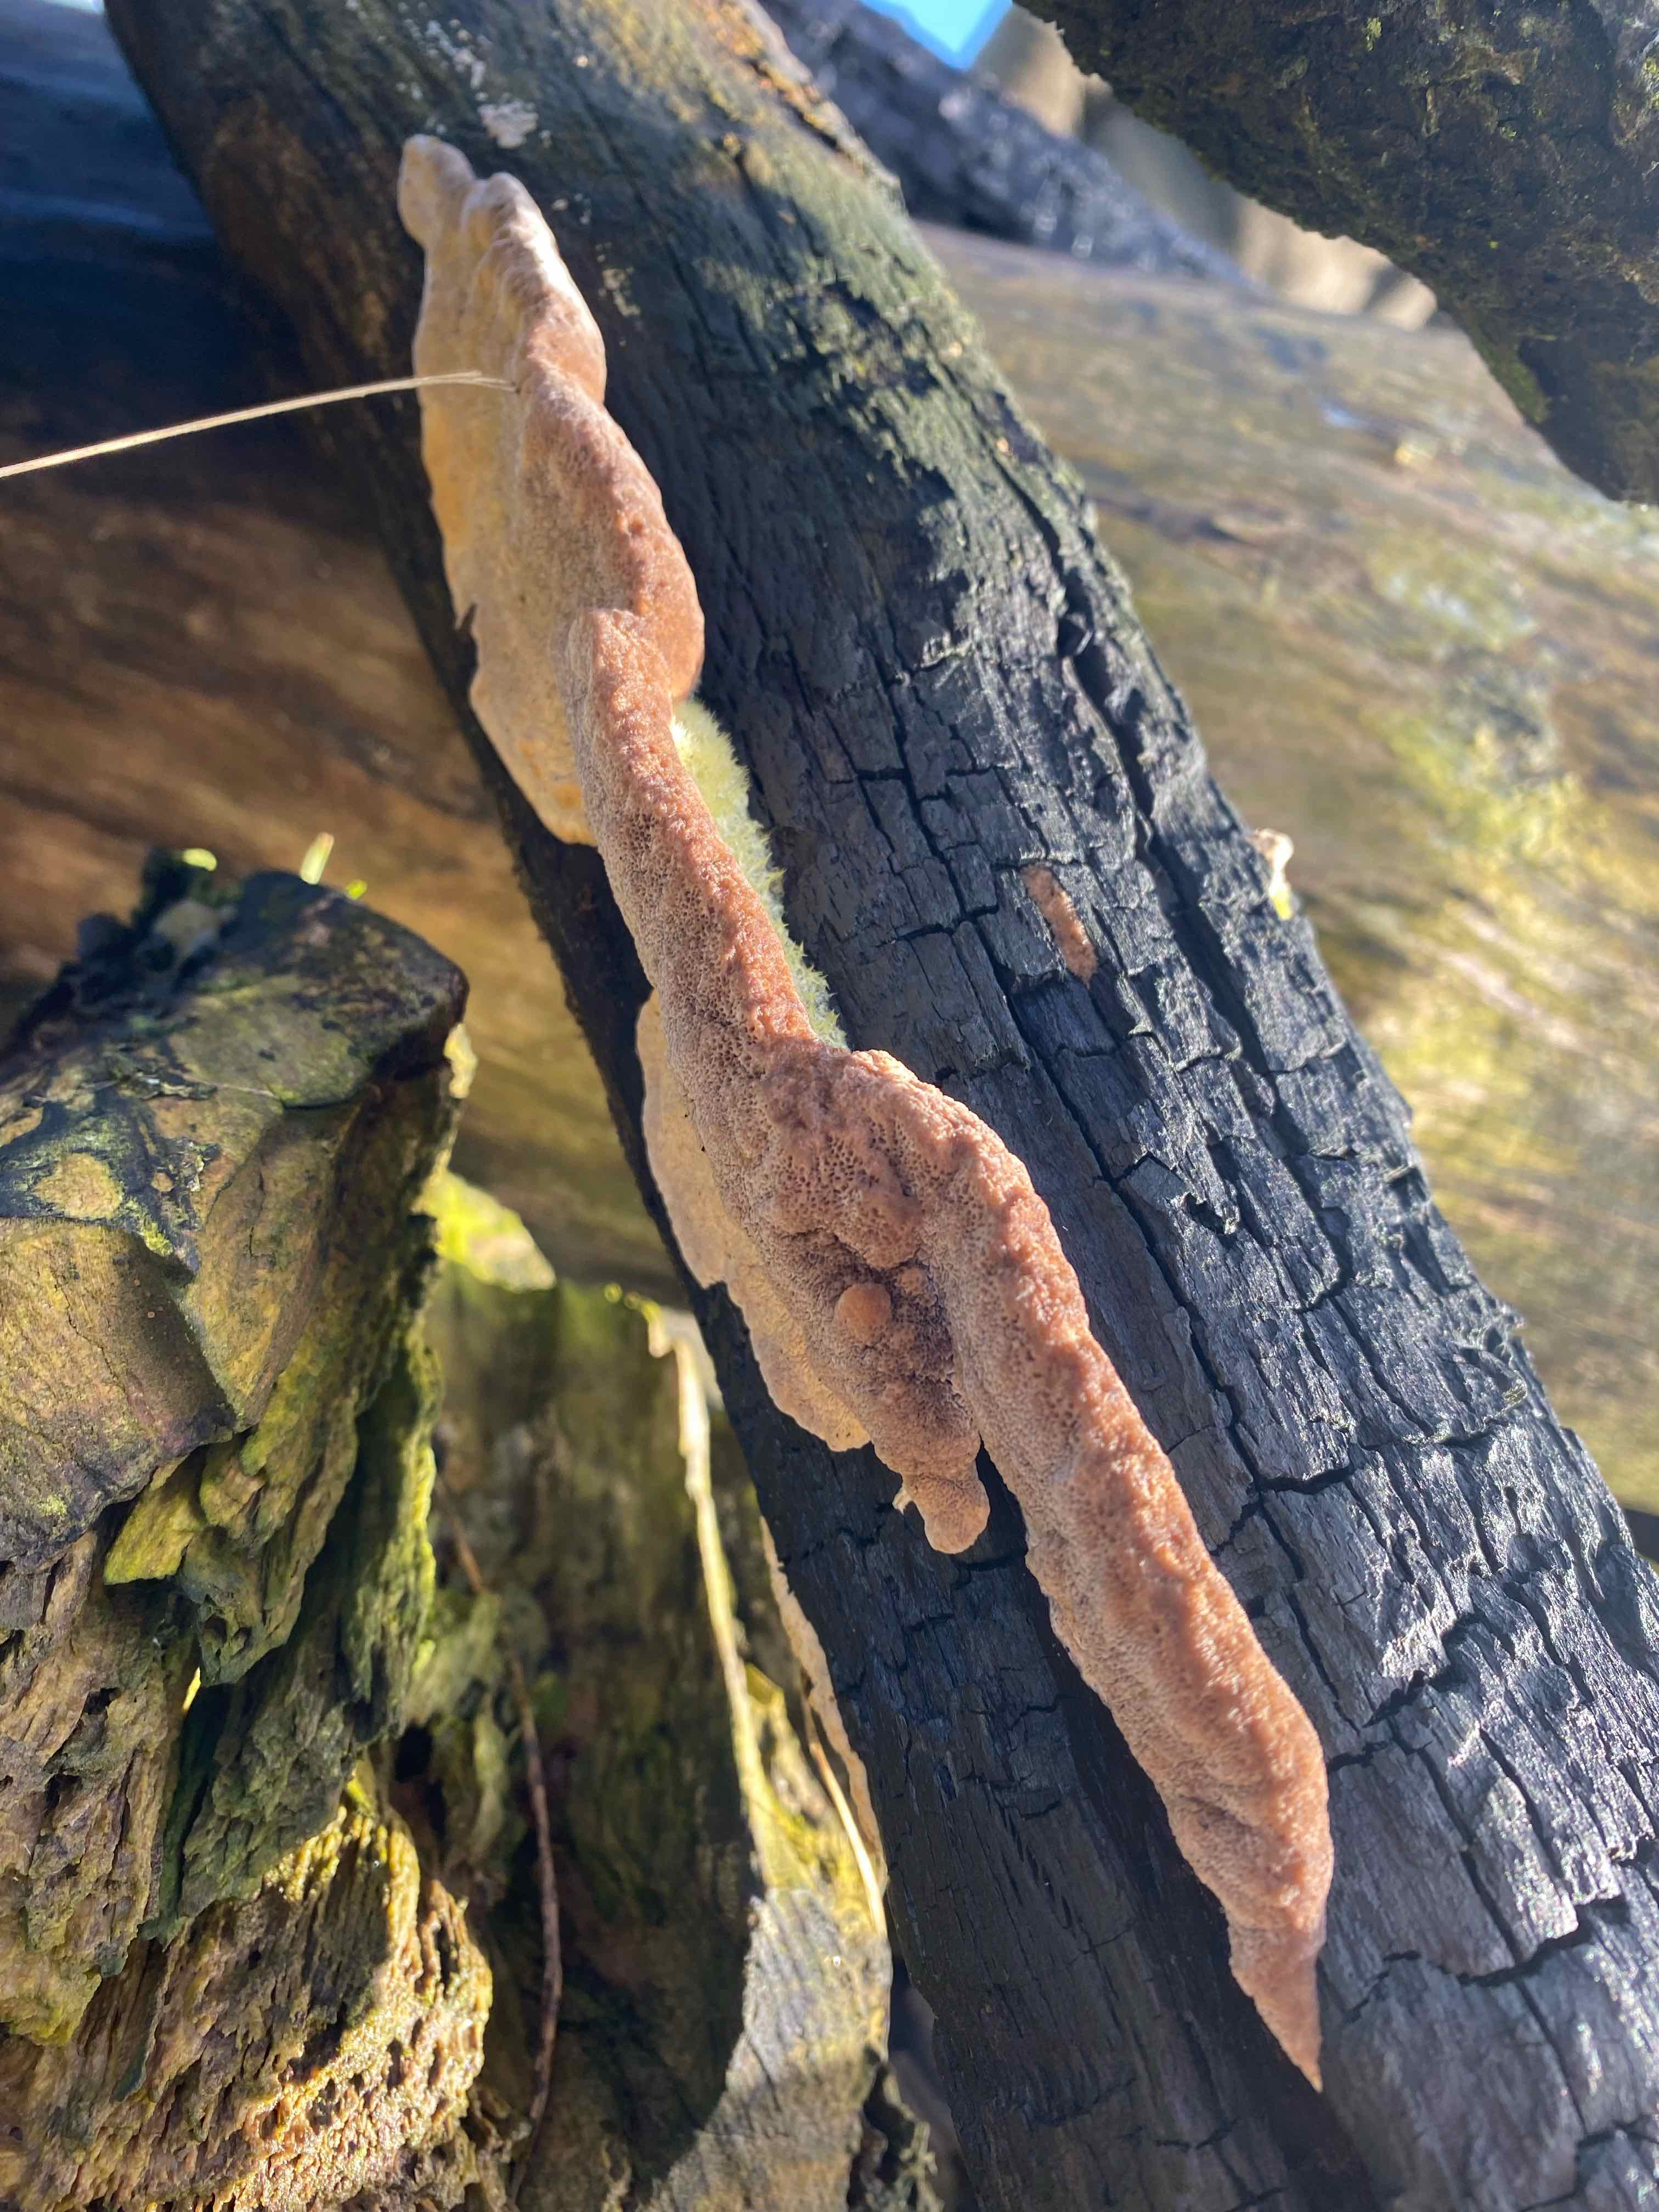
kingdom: Fungi
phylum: Basidiomycota
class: Agaricomycetes
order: Polyporales
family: Polyporaceae
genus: Trametes
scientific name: Trametes
